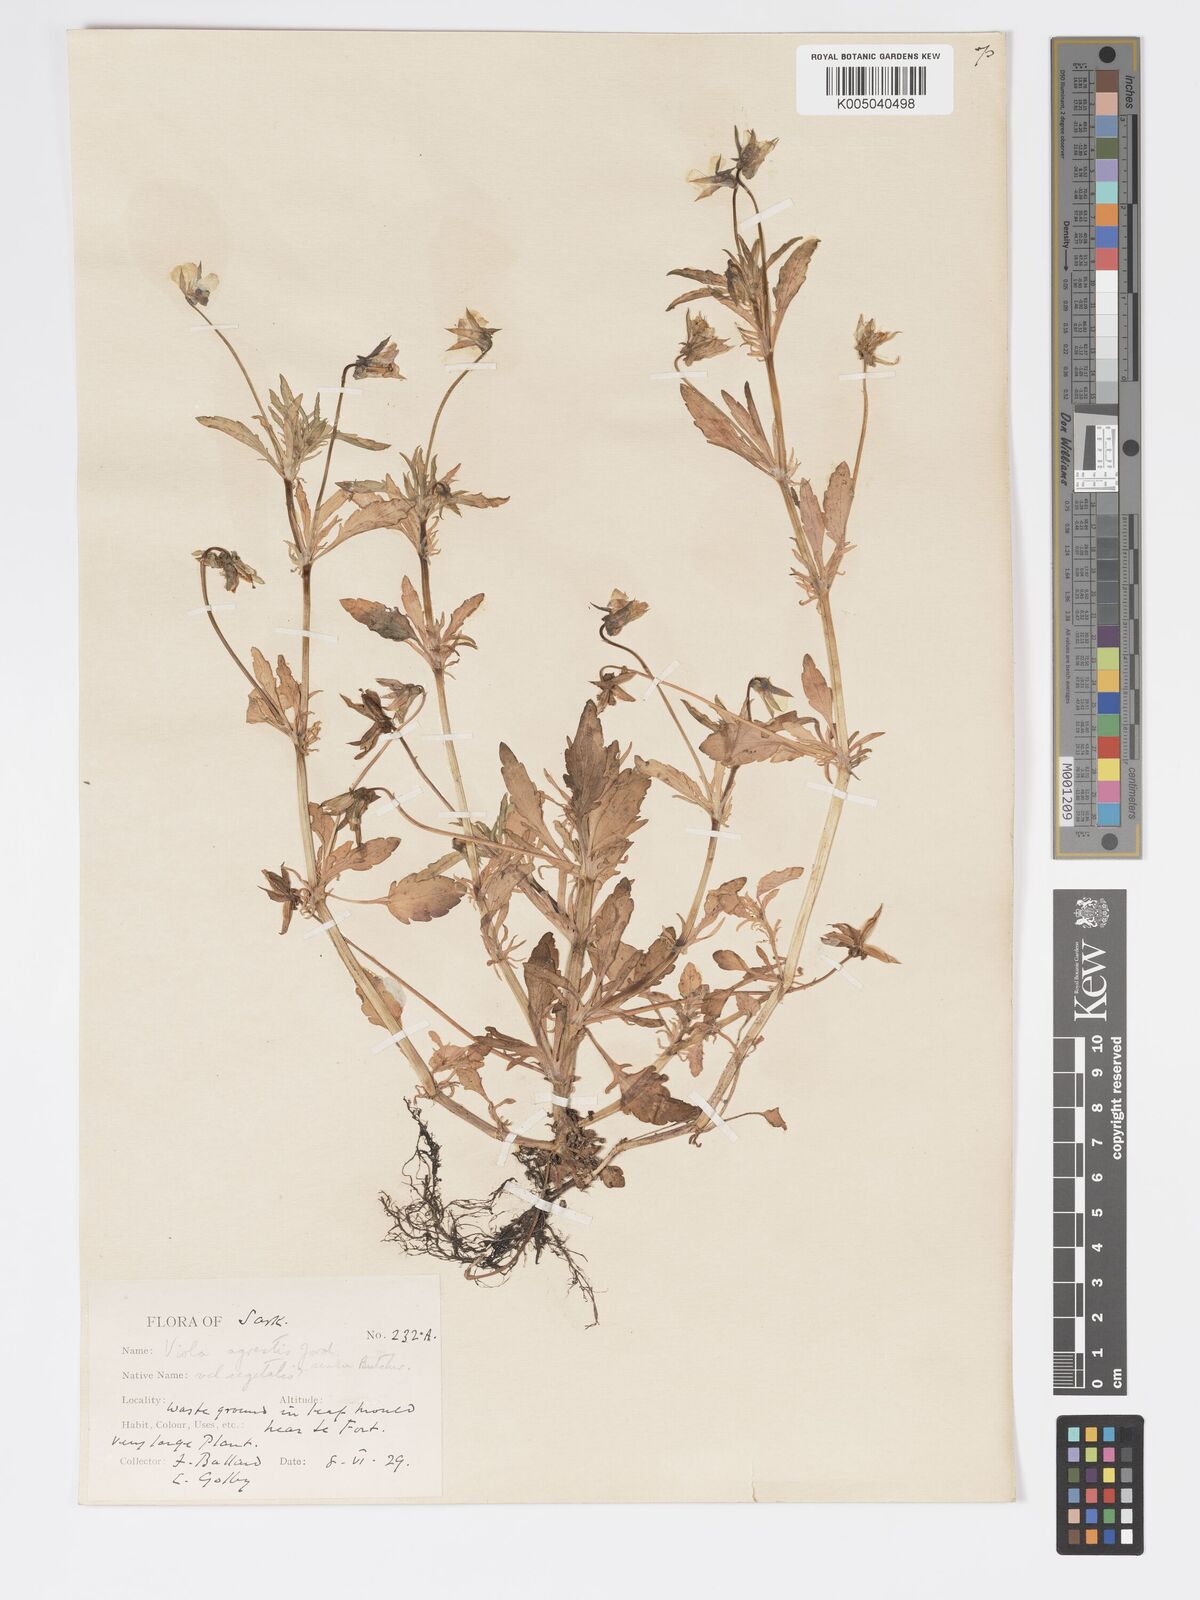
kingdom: Plantae
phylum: Tracheophyta
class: Magnoliopsida
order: Malpighiales
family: Violaceae
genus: Viola
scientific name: Viola arvensis
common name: Field pansy
